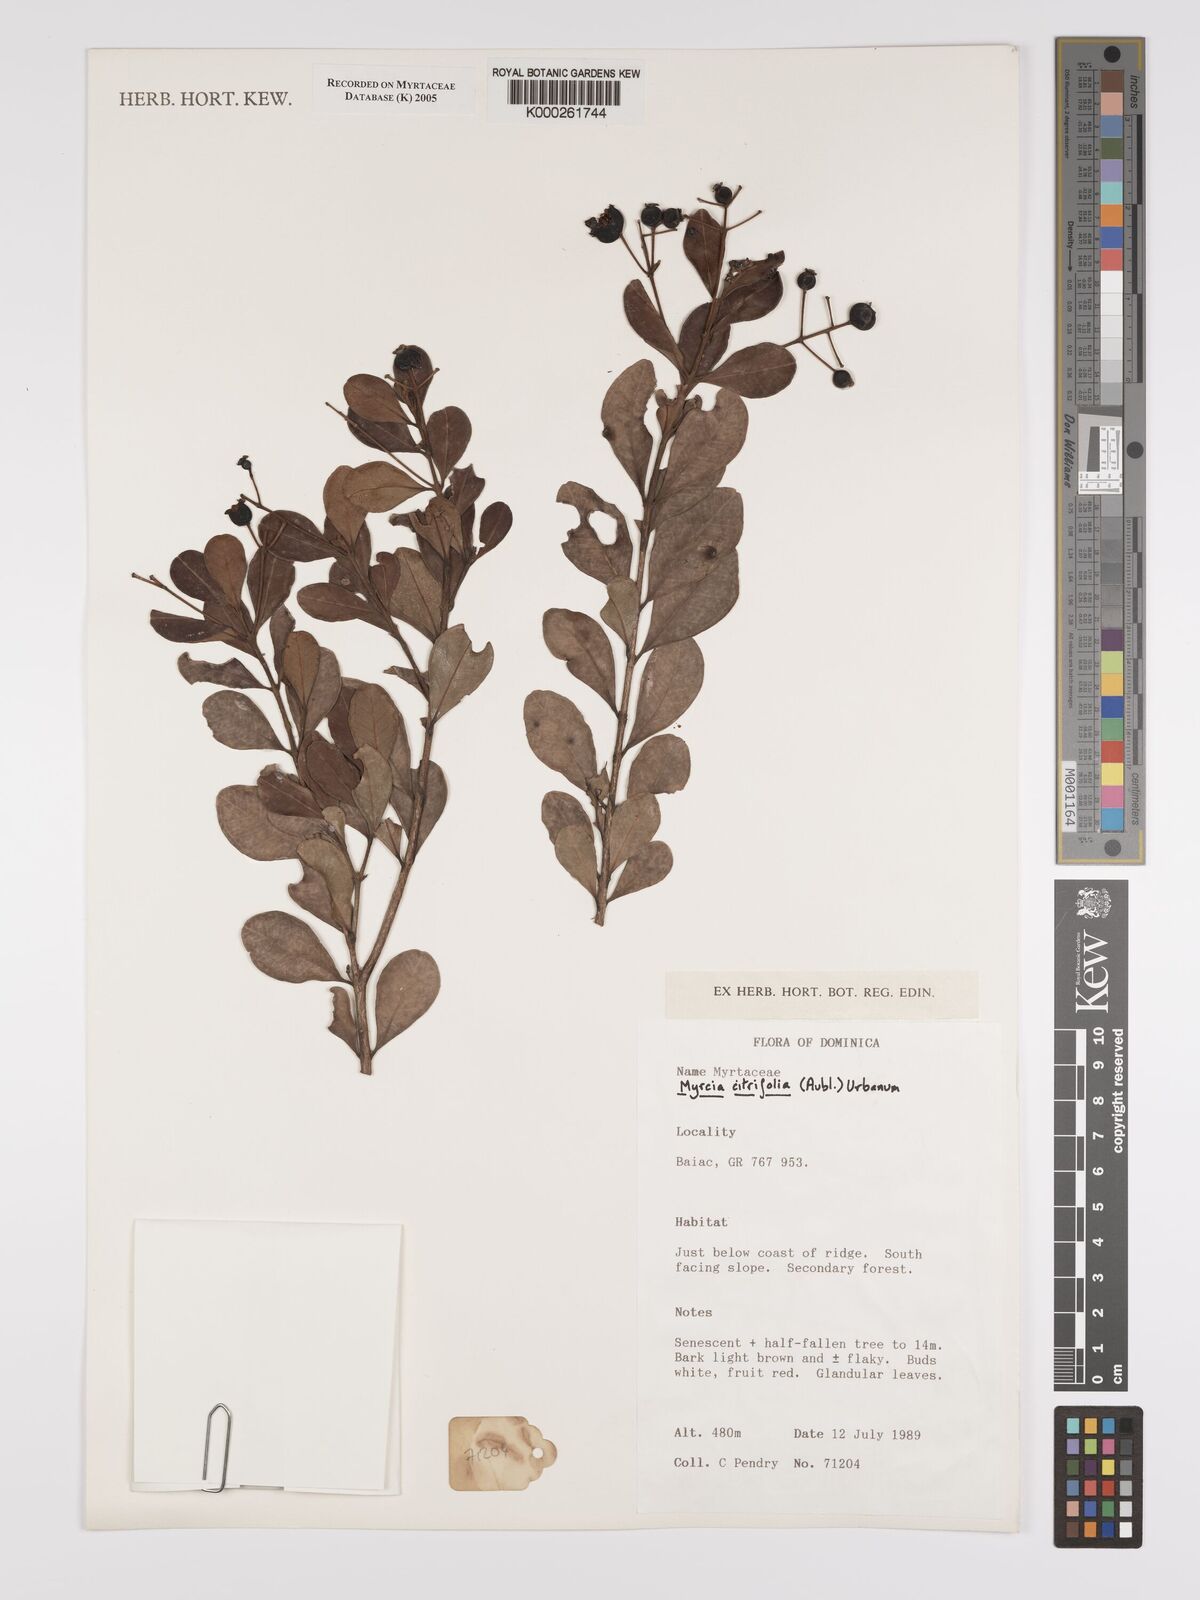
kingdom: Plantae
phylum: Tracheophyta
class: Magnoliopsida
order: Myrtales
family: Myrtaceae
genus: Myrcia
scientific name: Myrcia guianensis
